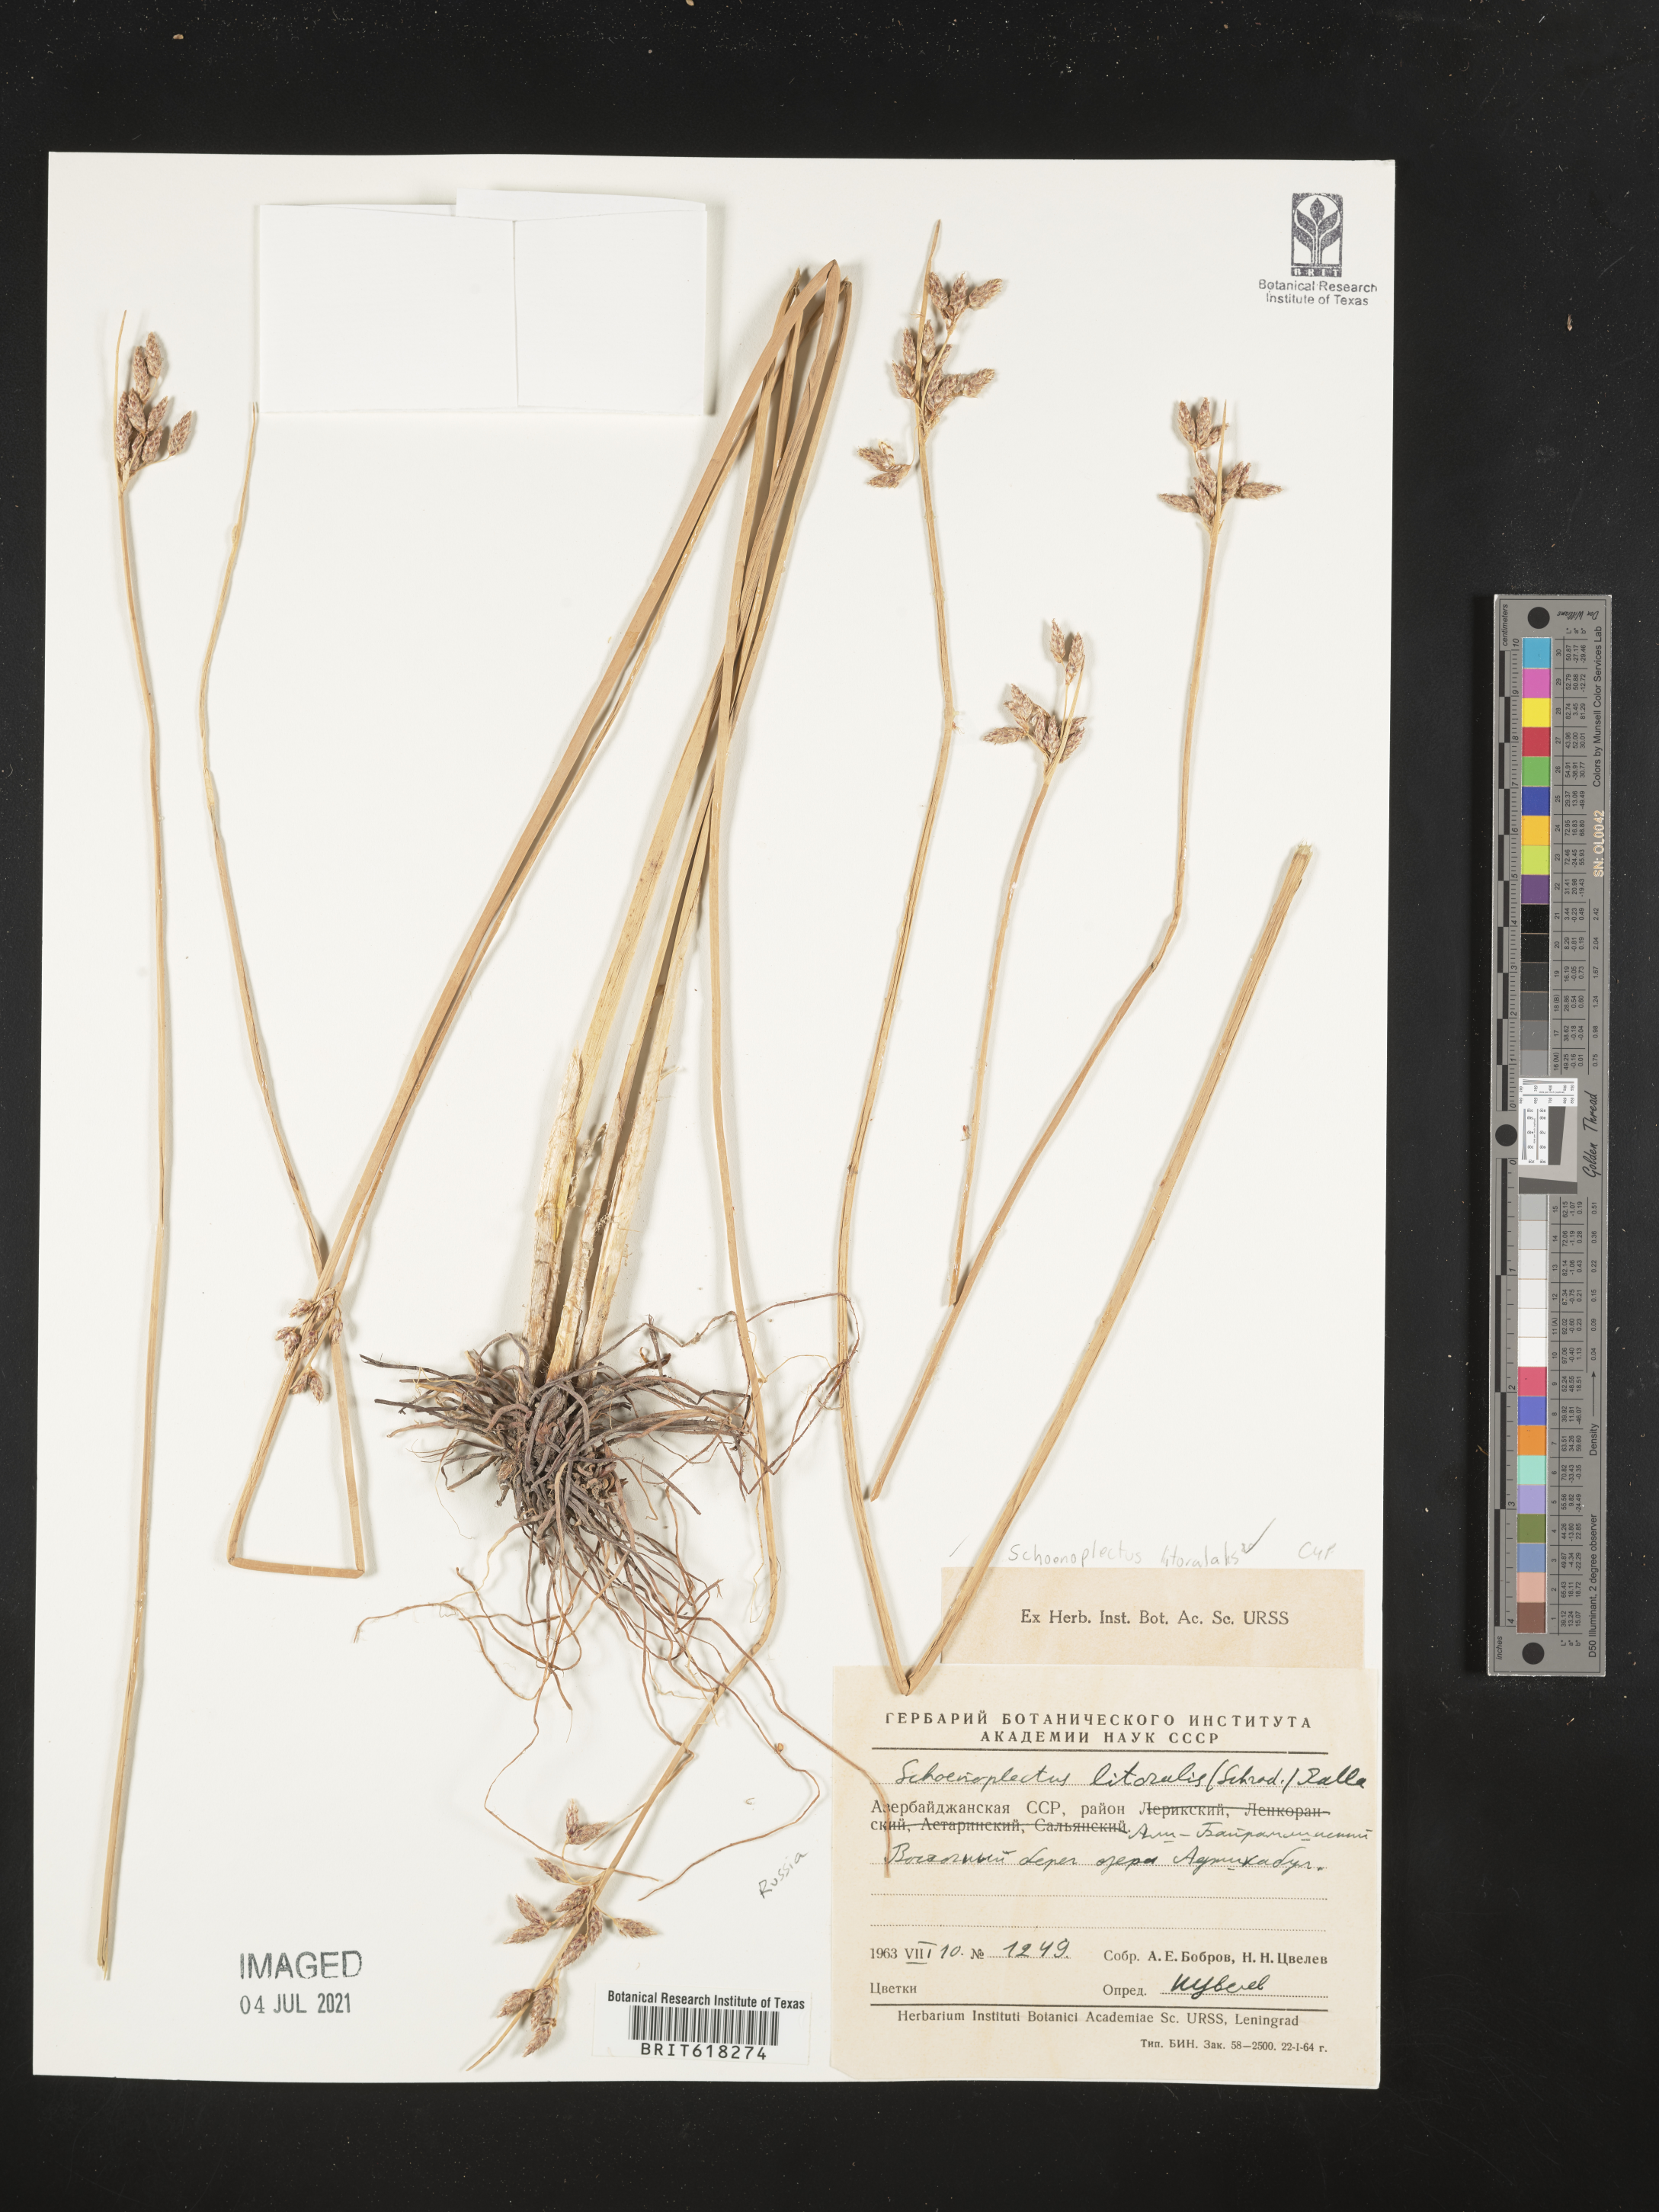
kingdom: Plantae
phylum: Tracheophyta
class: Liliopsida
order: Poales
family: Cyperaceae
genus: Schoenoplectus
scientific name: Schoenoplectus litoralis
